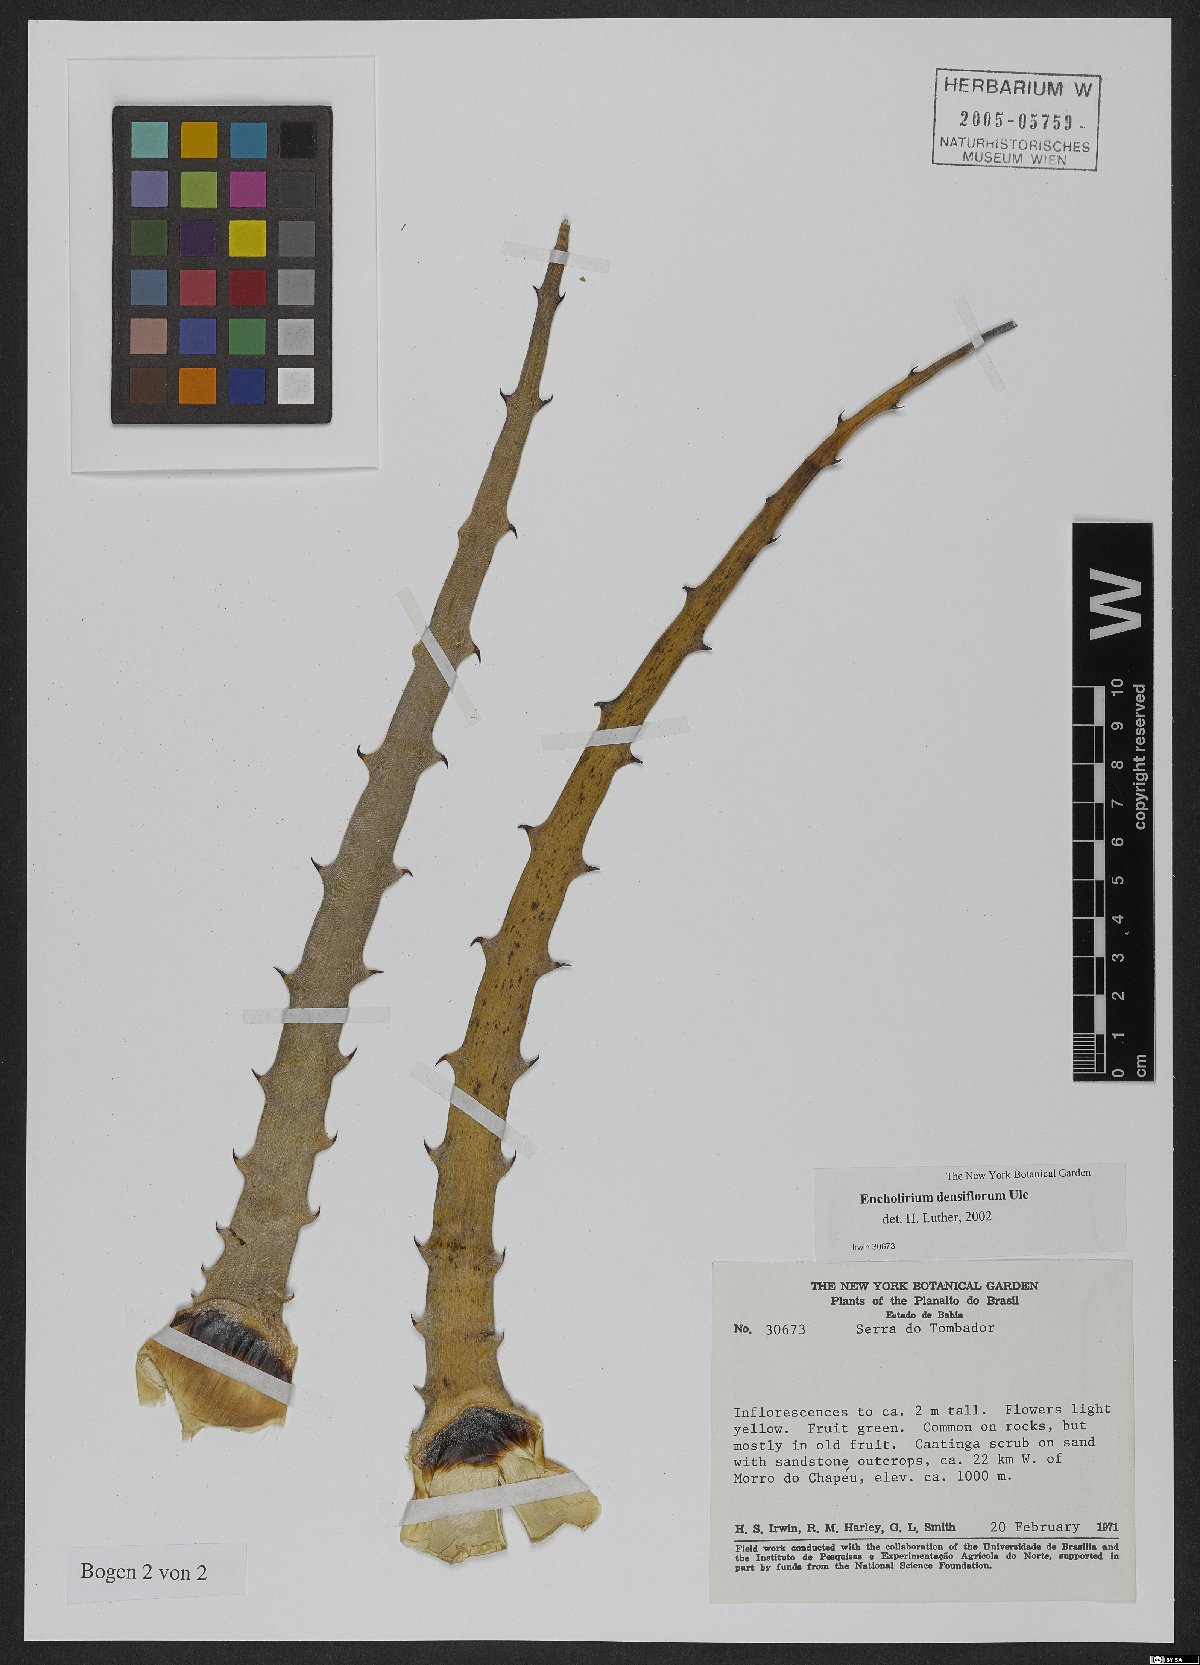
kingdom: Plantae
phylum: Tracheophyta
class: Liliopsida
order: Poales
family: Bromeliaceae
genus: Encholirium
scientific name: Encholirium spectabile
